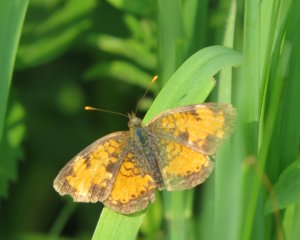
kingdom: Animalia
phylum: Arthropoda
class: Insecta
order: Lepidoptera
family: Nymphalidae
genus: Phyciodes
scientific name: Phyciodes tharos
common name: Northern Crescent
